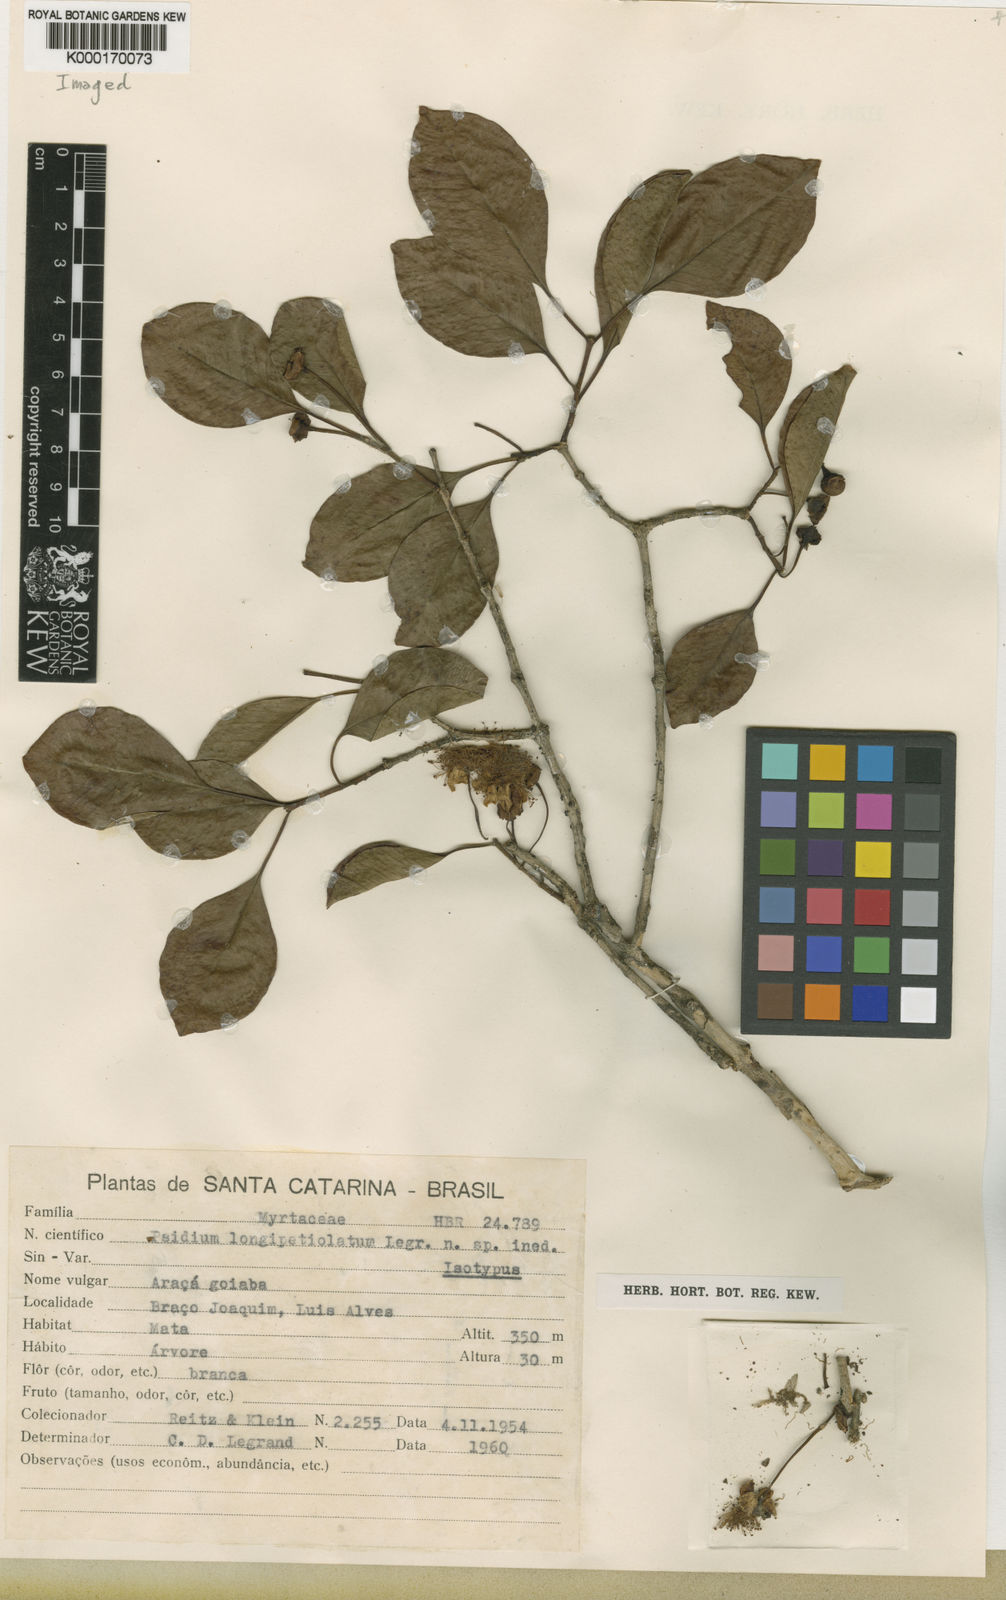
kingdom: Plantae
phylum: Tracheophyta
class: Magnoliopsida
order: Myrtales
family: Myrtaceae
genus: Psidium
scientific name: Psidium longipetiolatum
